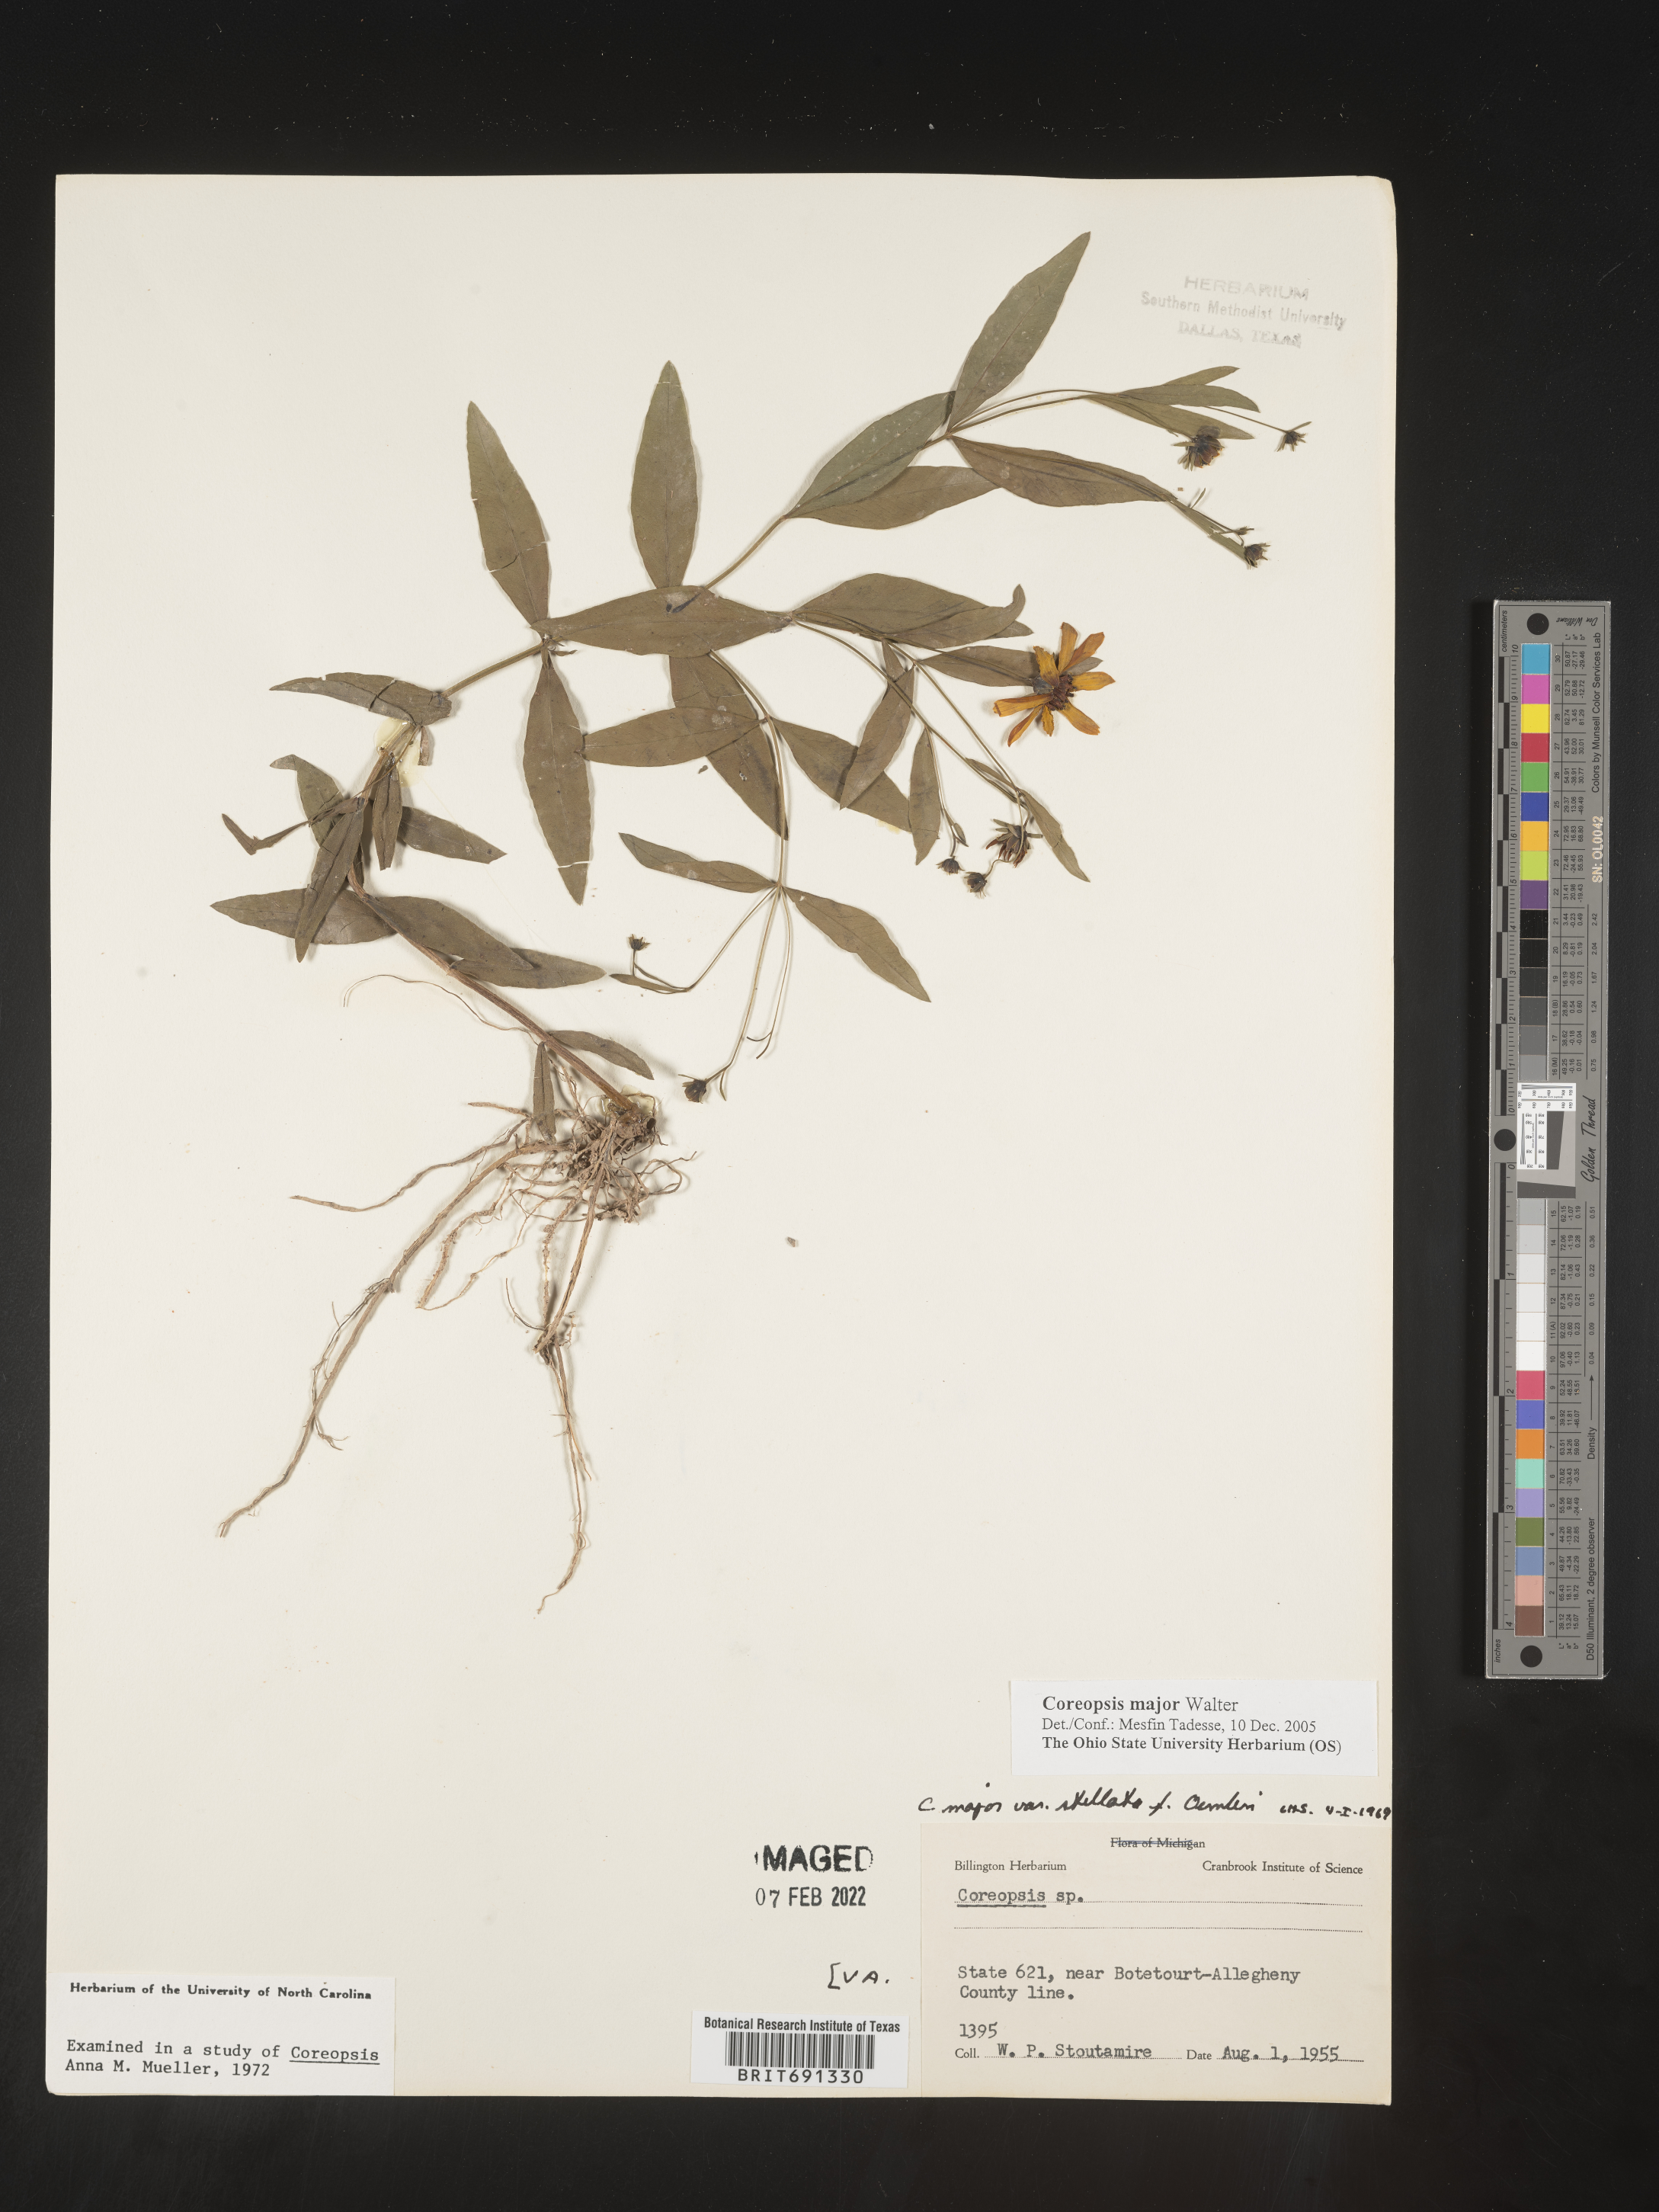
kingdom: Plantae
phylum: Tracheophyta
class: Magnoliopsida
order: Asterales
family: Asteraceae
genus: Coreopsis
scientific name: Coreopsis major
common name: Forest tickseed
